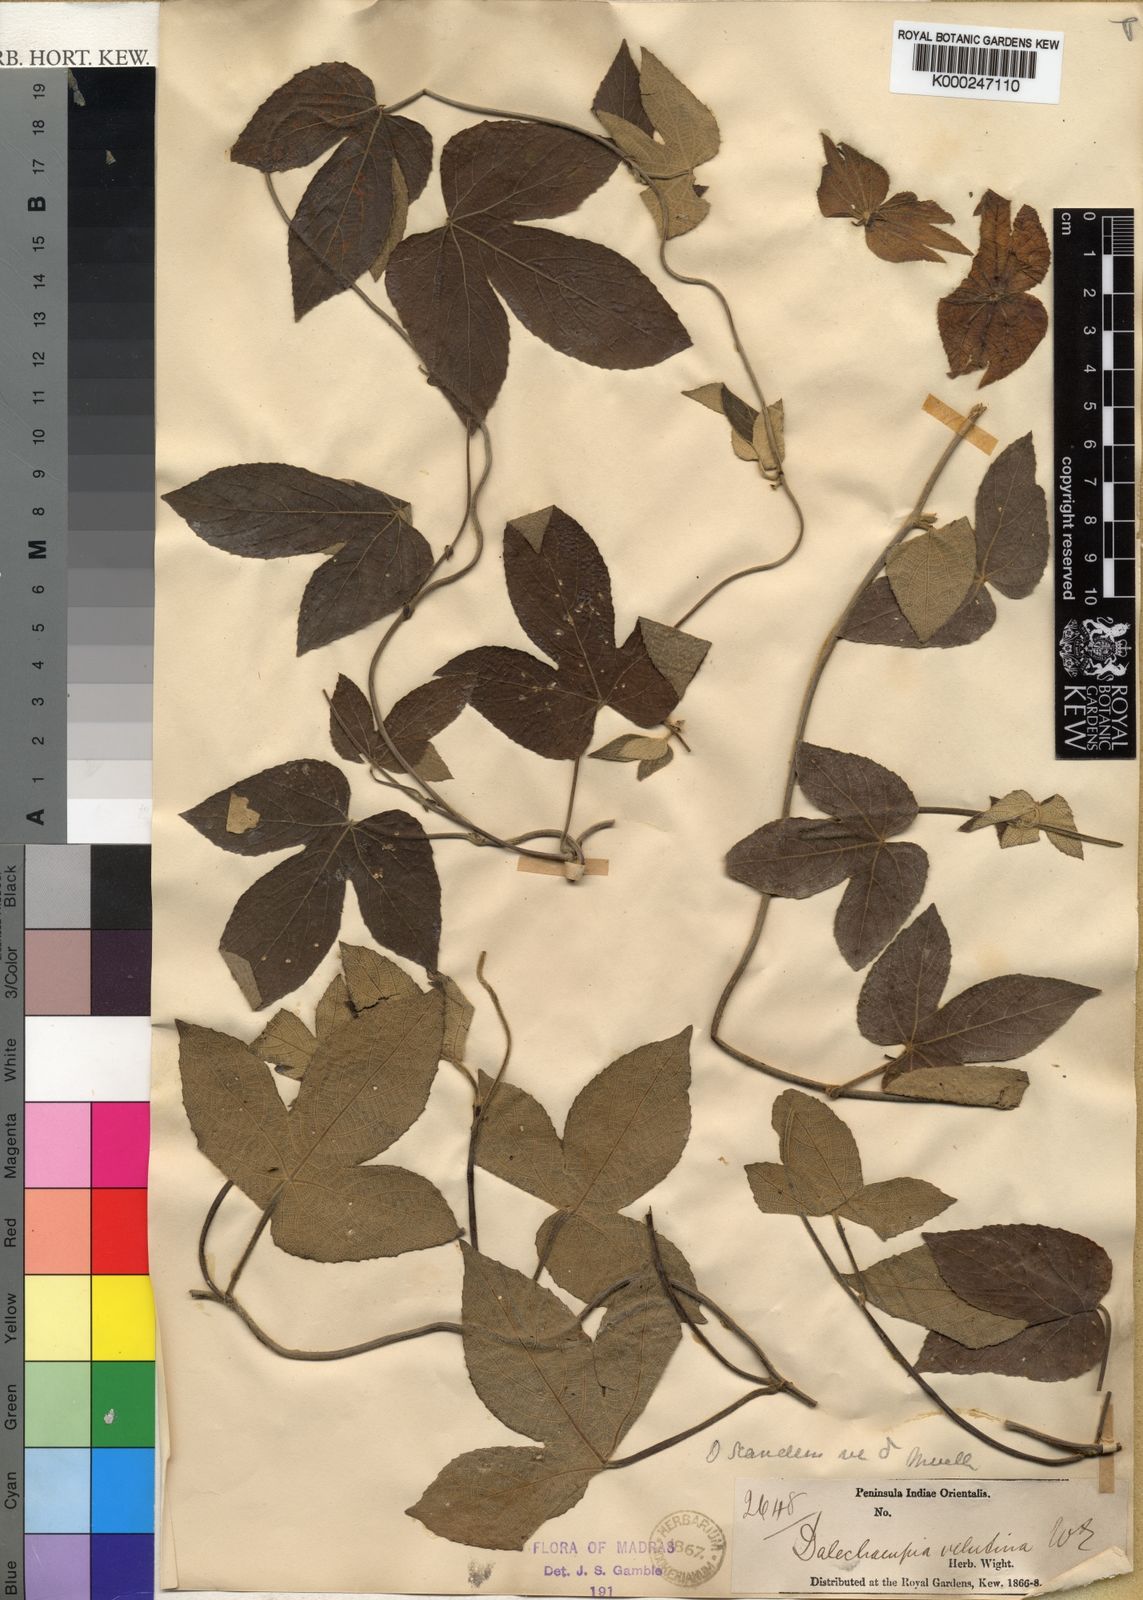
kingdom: Plantae
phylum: Tracheophyta
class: Magnoliopsida
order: Malpighiales
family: Euphorbiaceae
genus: Dalechampia
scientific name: Dalechampia velutina
